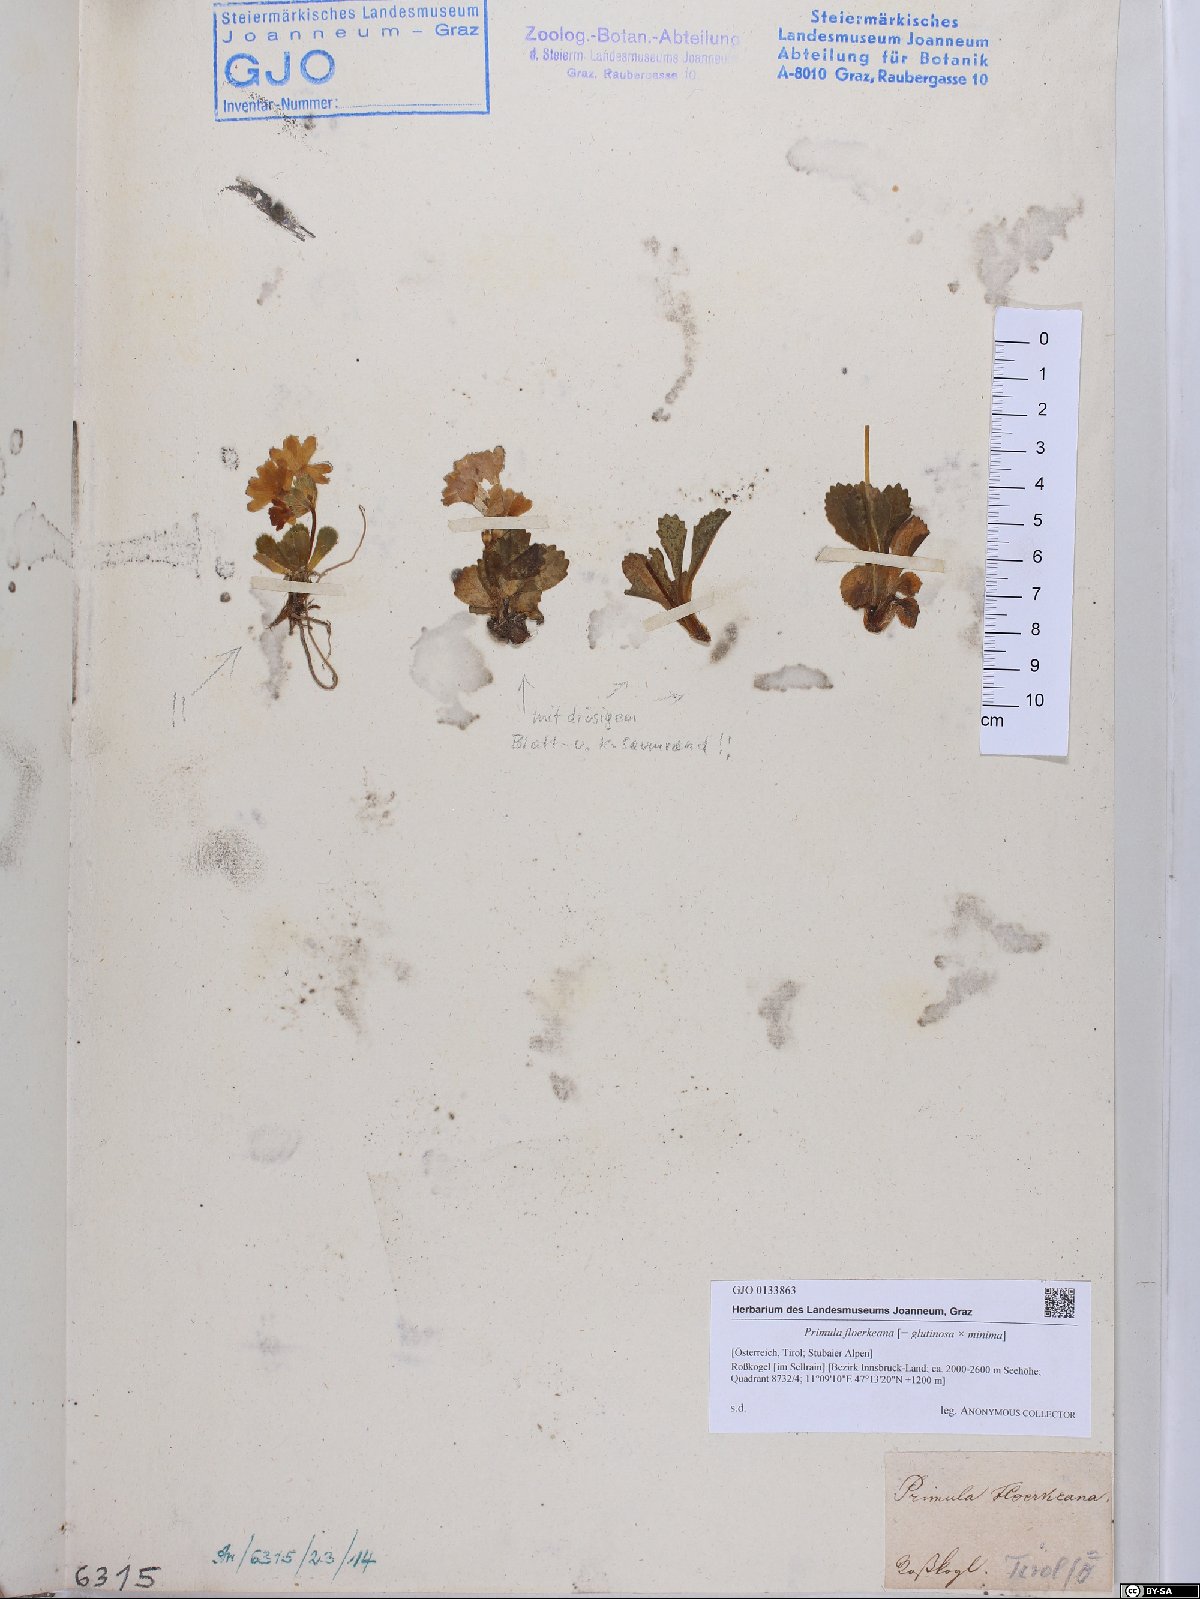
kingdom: Plantae
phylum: Tracheophyta
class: Magnoliopsida
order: Ericales
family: Primulaceae
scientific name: Primulaceae
